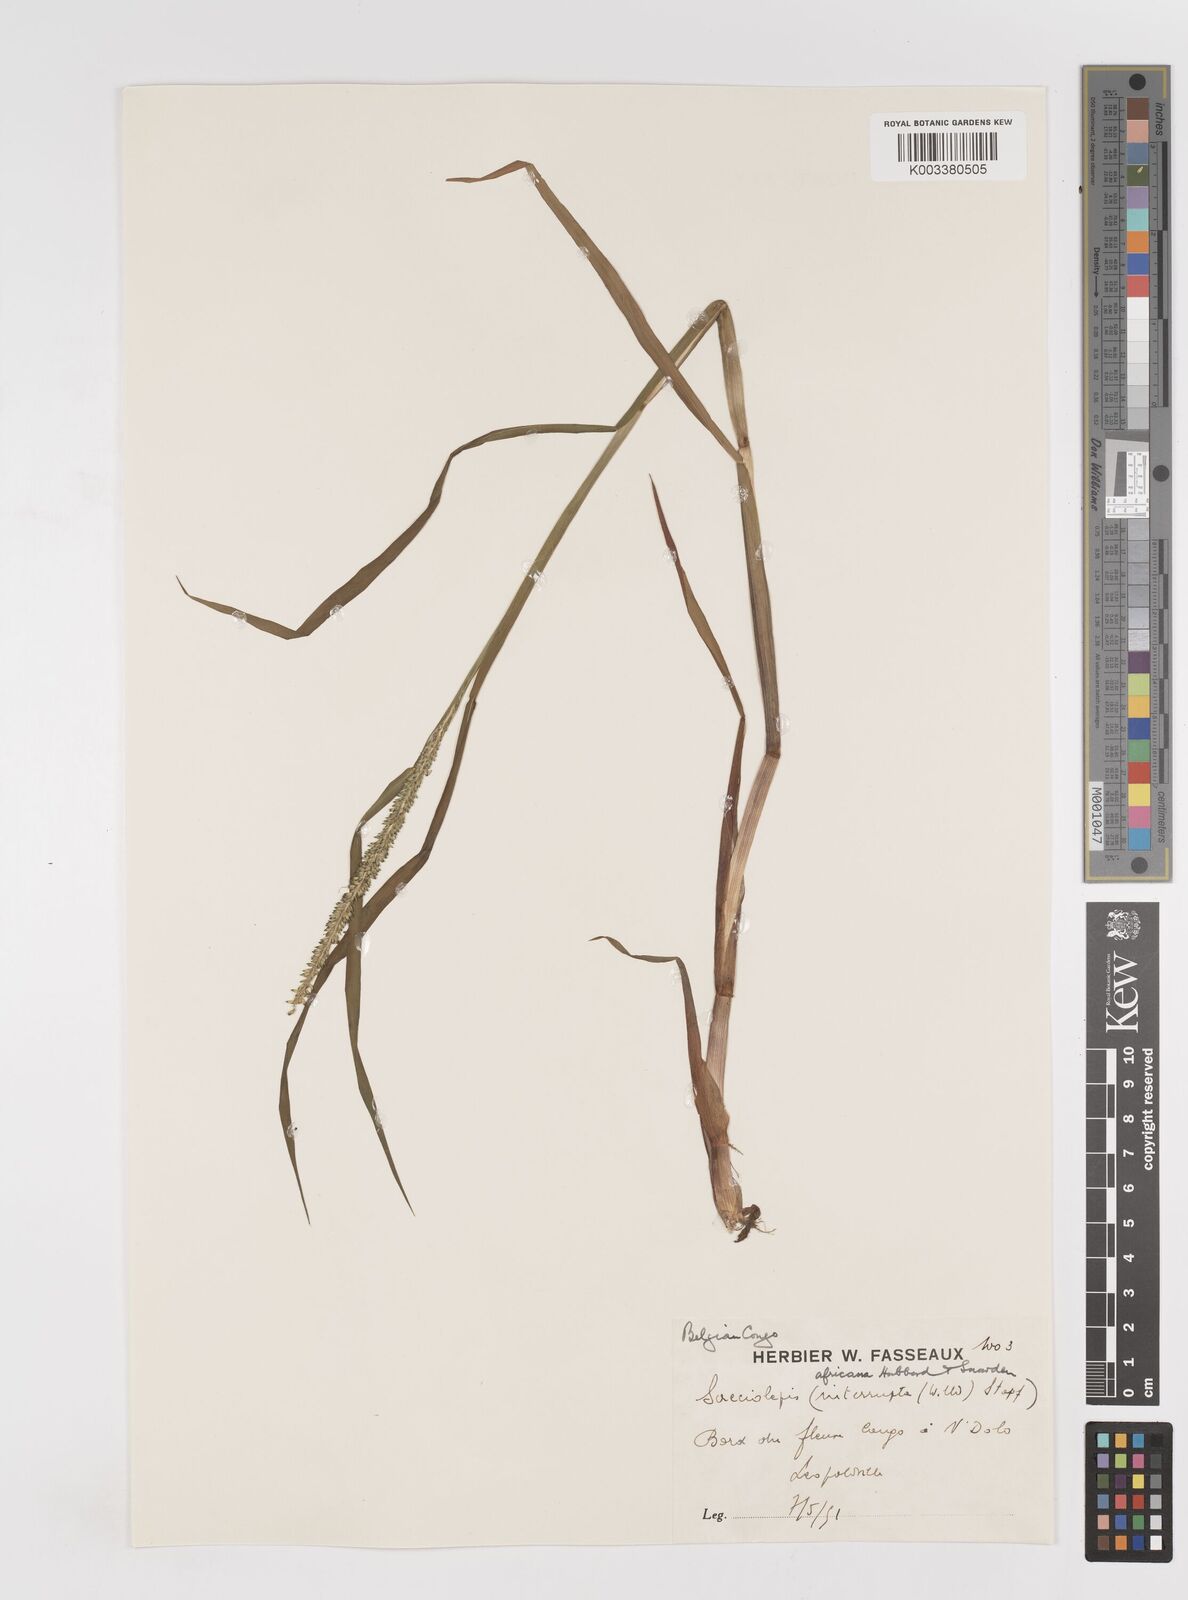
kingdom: Plantae
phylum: Tracheophyta
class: Liliopsida
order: Poales
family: Poaceae
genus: Sacciolepis
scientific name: Sacciolepis africana
